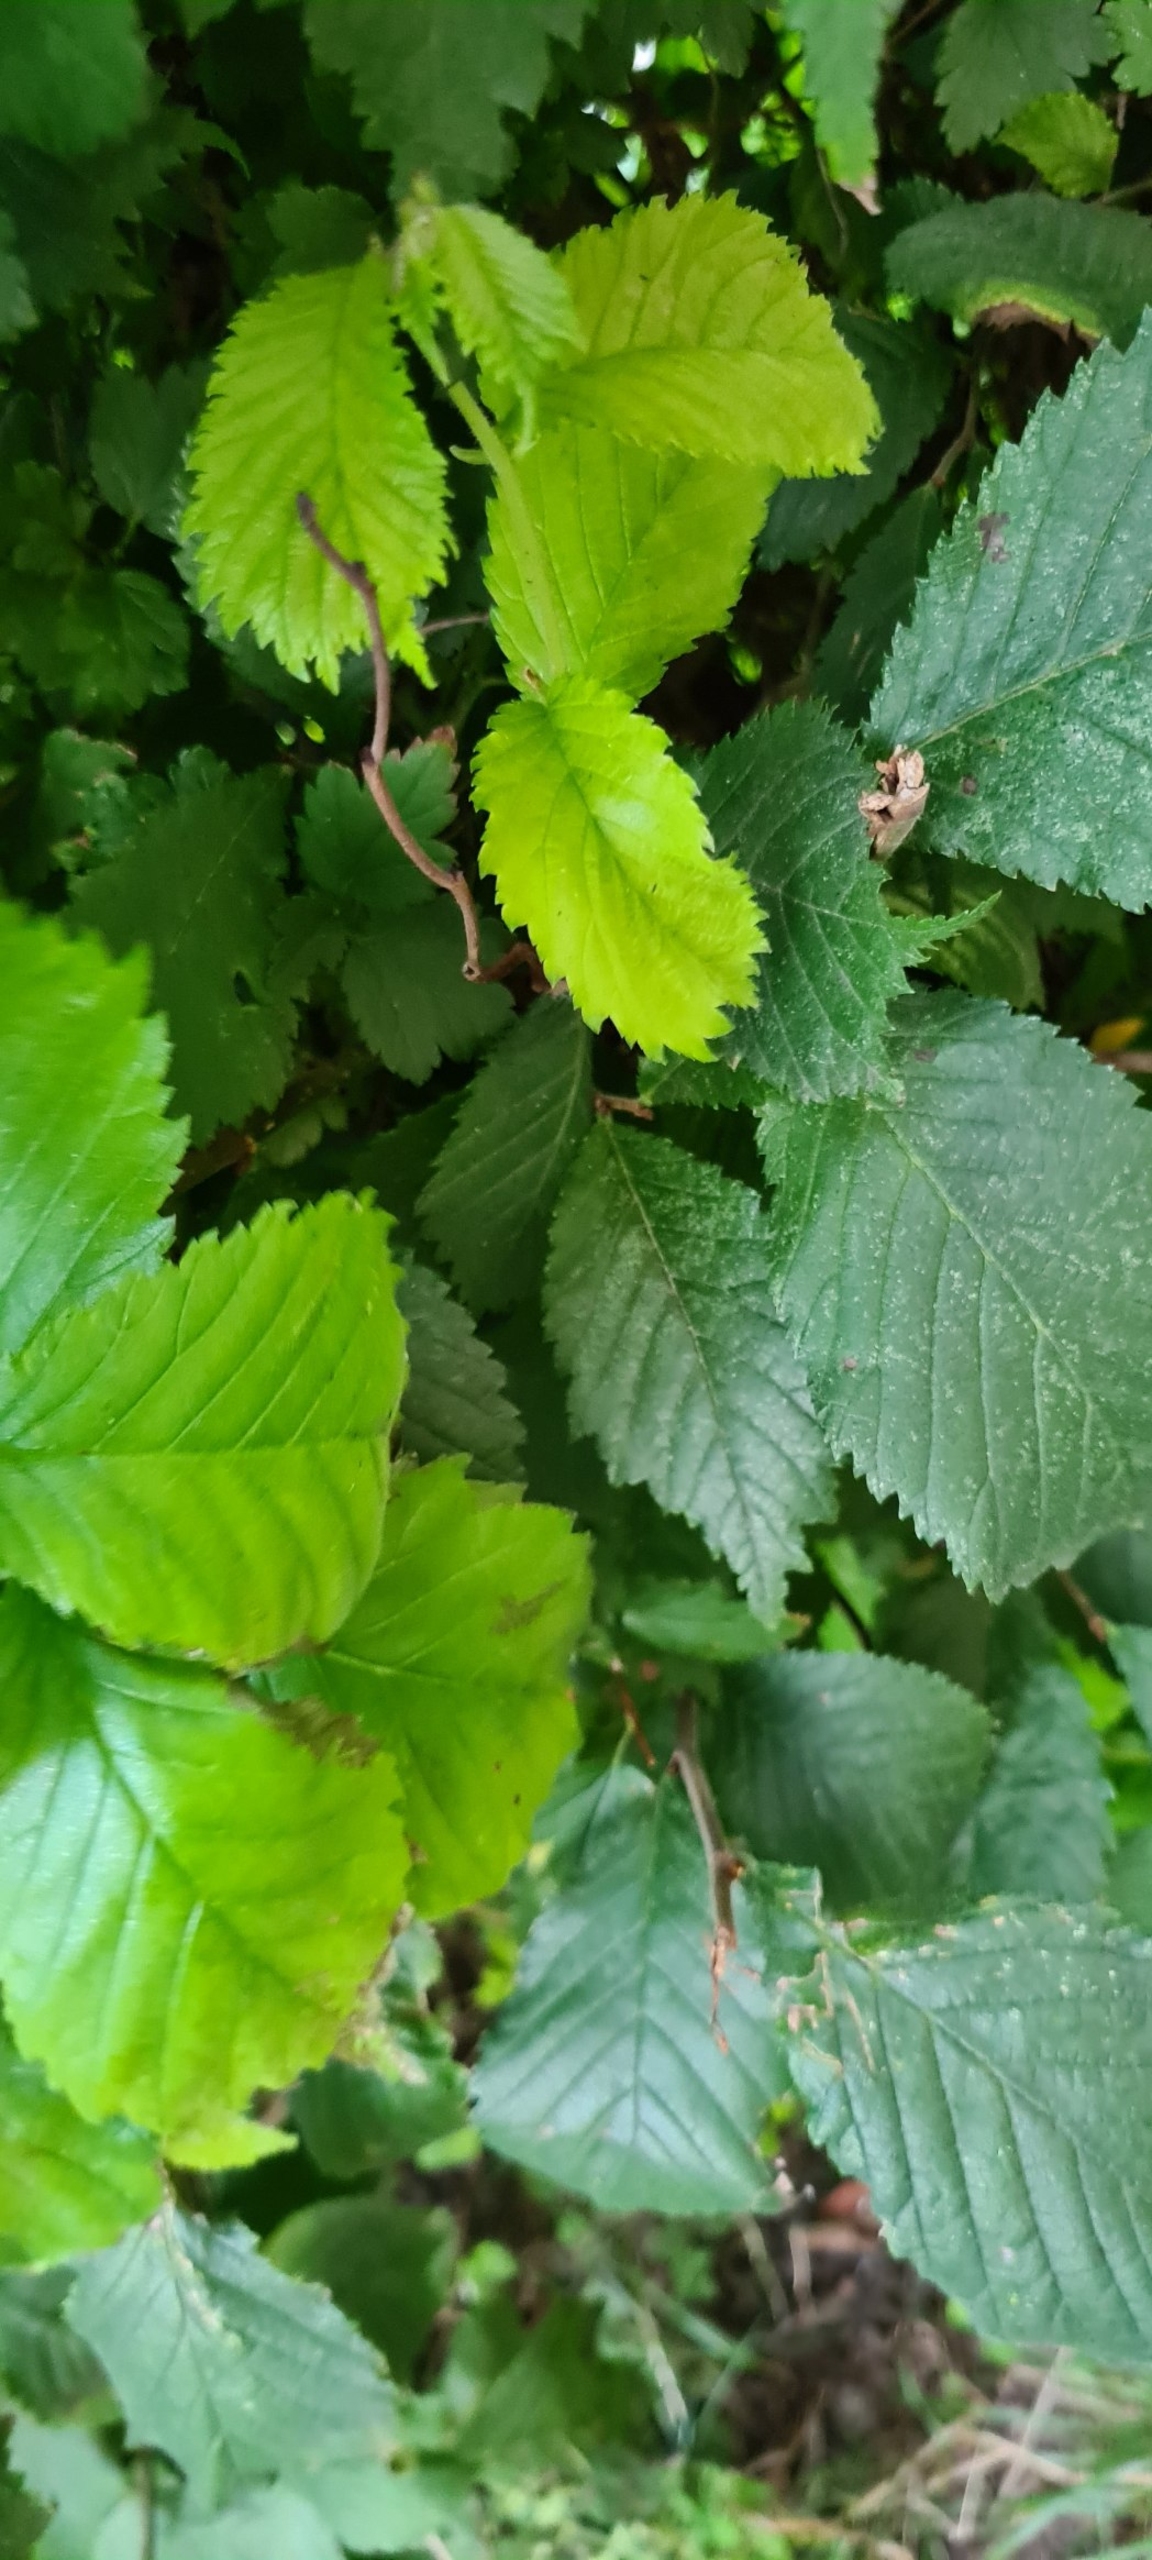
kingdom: Plantae
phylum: Tracheophyta
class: Magnoliopsida
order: Rosales
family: Ulmaceae
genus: Ulmus
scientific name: Ulmus glabra
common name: Skov-elm/storbladet elm
